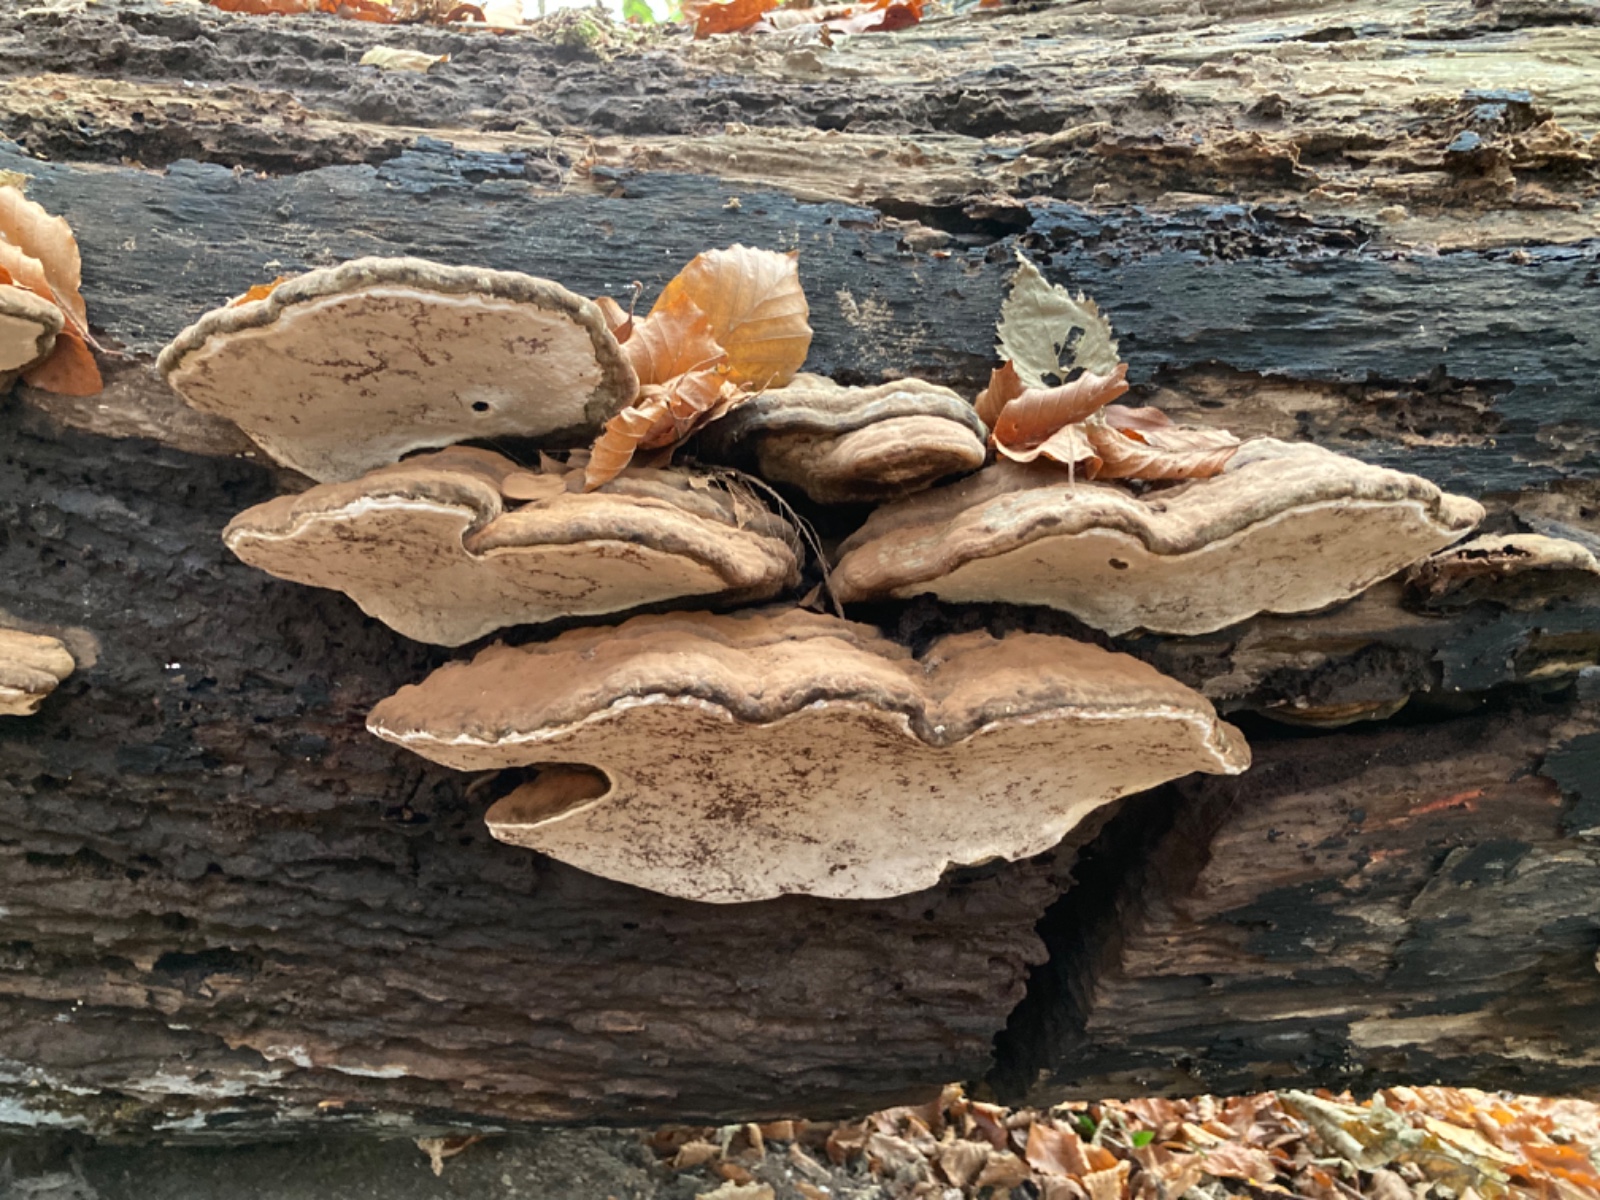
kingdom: Fungi
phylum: Basidiomycota
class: Agaricomycetes
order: Polyporales
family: Polyporaceae
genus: Ganoderma
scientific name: Ganoderma applanatum
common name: flad lakporesvamp
